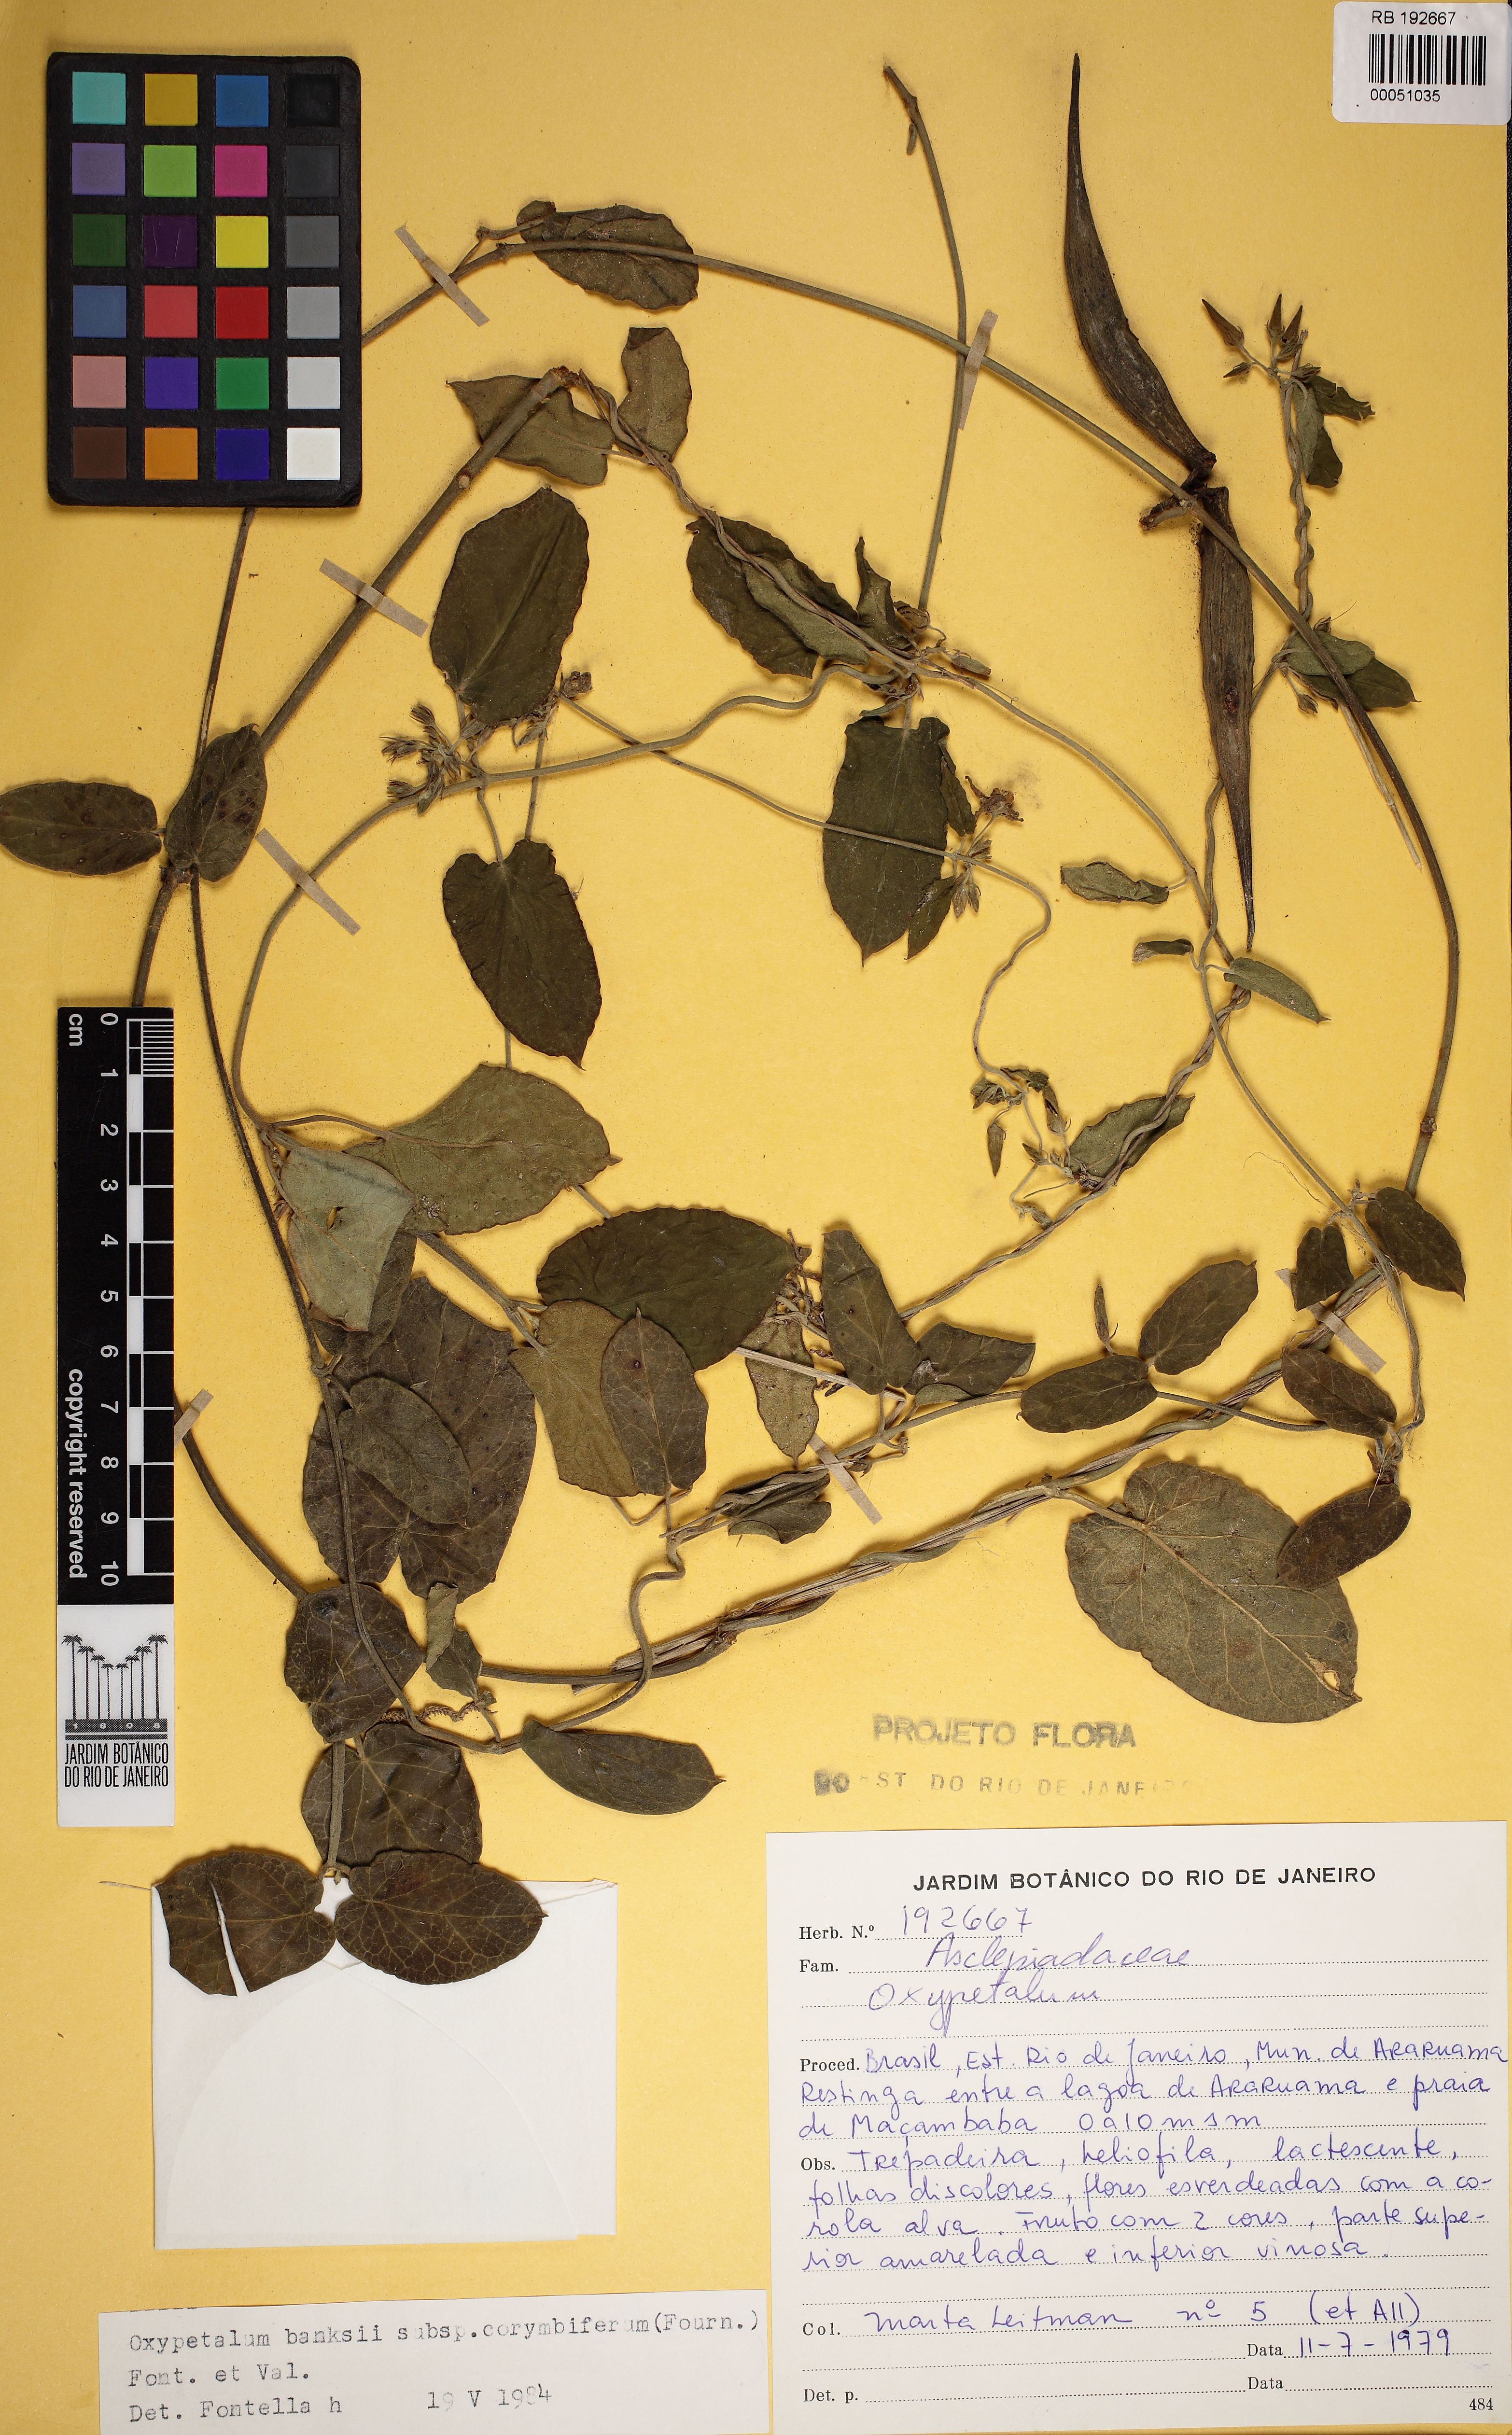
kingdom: Plantae
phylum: Tracheophyta
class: Magnoliopsida
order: Gentianales
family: Apocynaceae
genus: Oxypetalum
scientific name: Oxypetalum banksii
